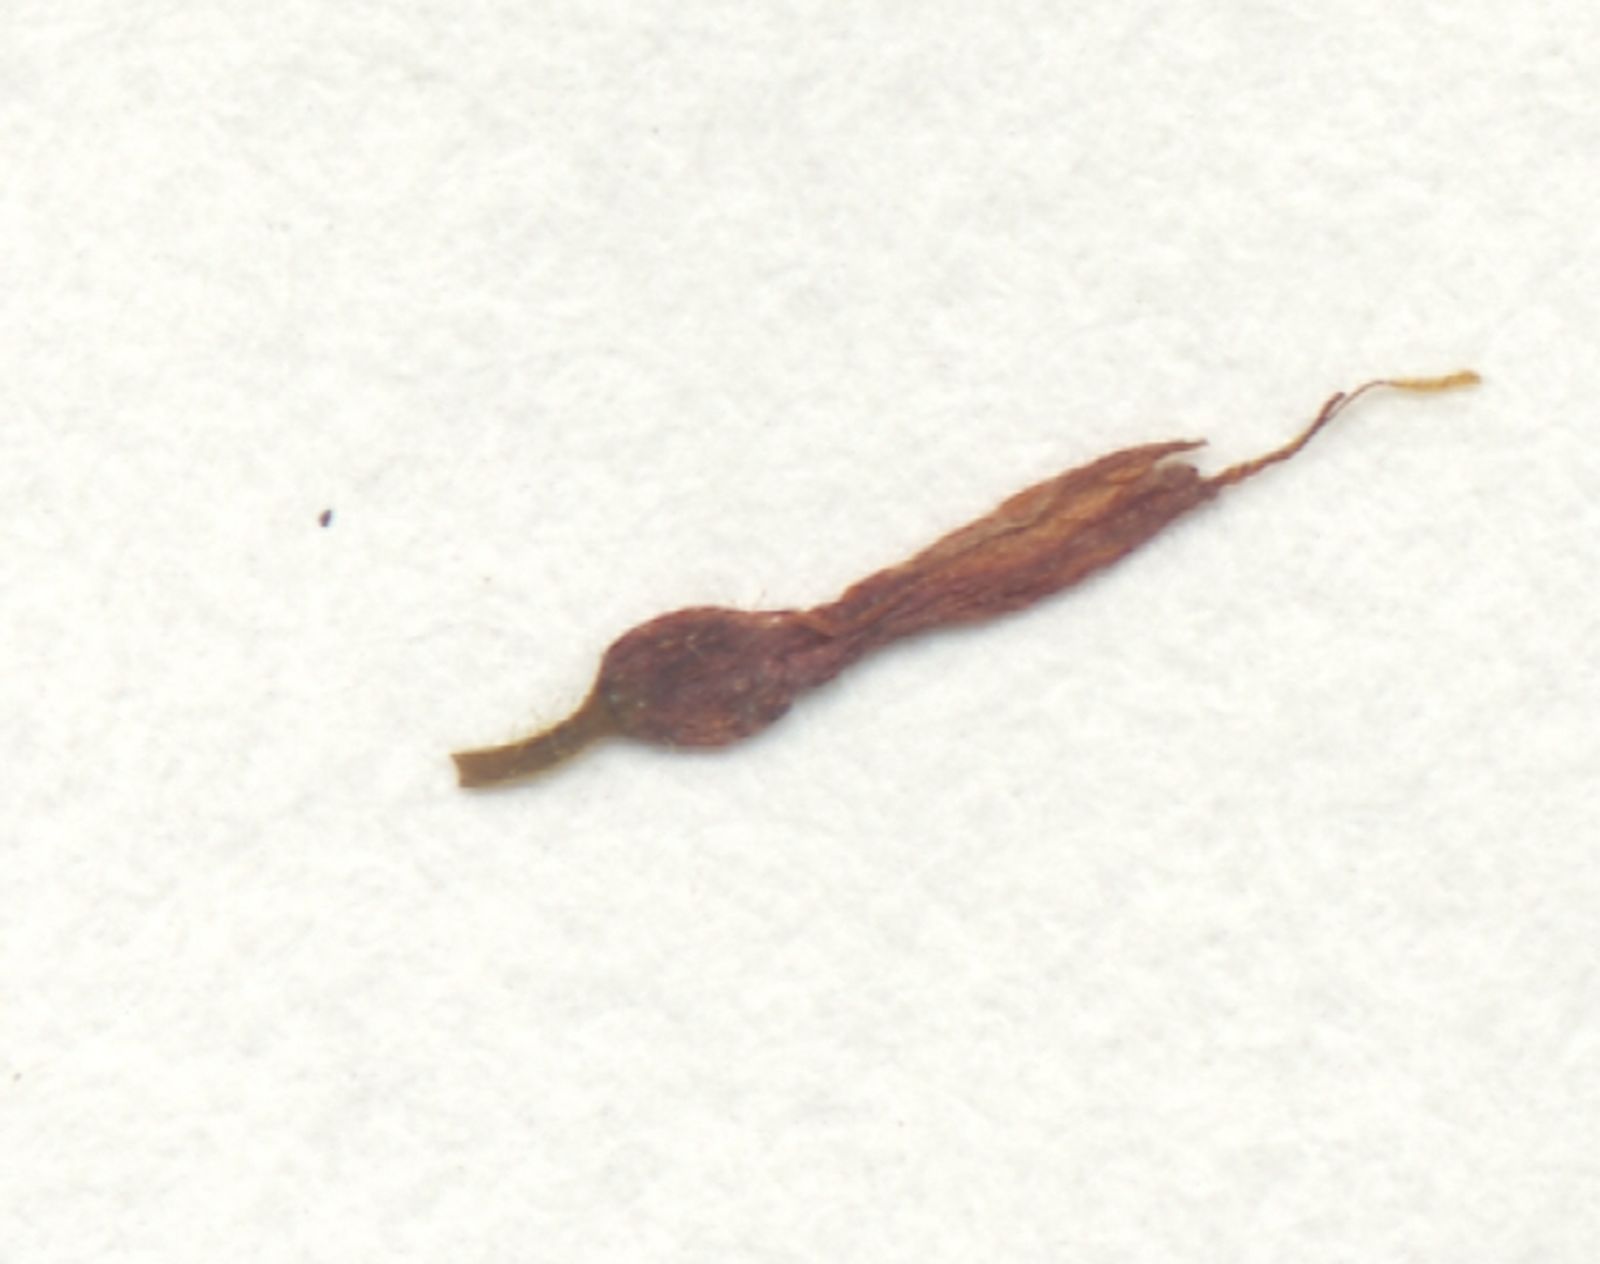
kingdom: Plantae
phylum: Tracheophyta
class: Liliopsida
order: Commelinales
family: Haemodoraceae
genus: Barberetta
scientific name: Barberetta aurea
